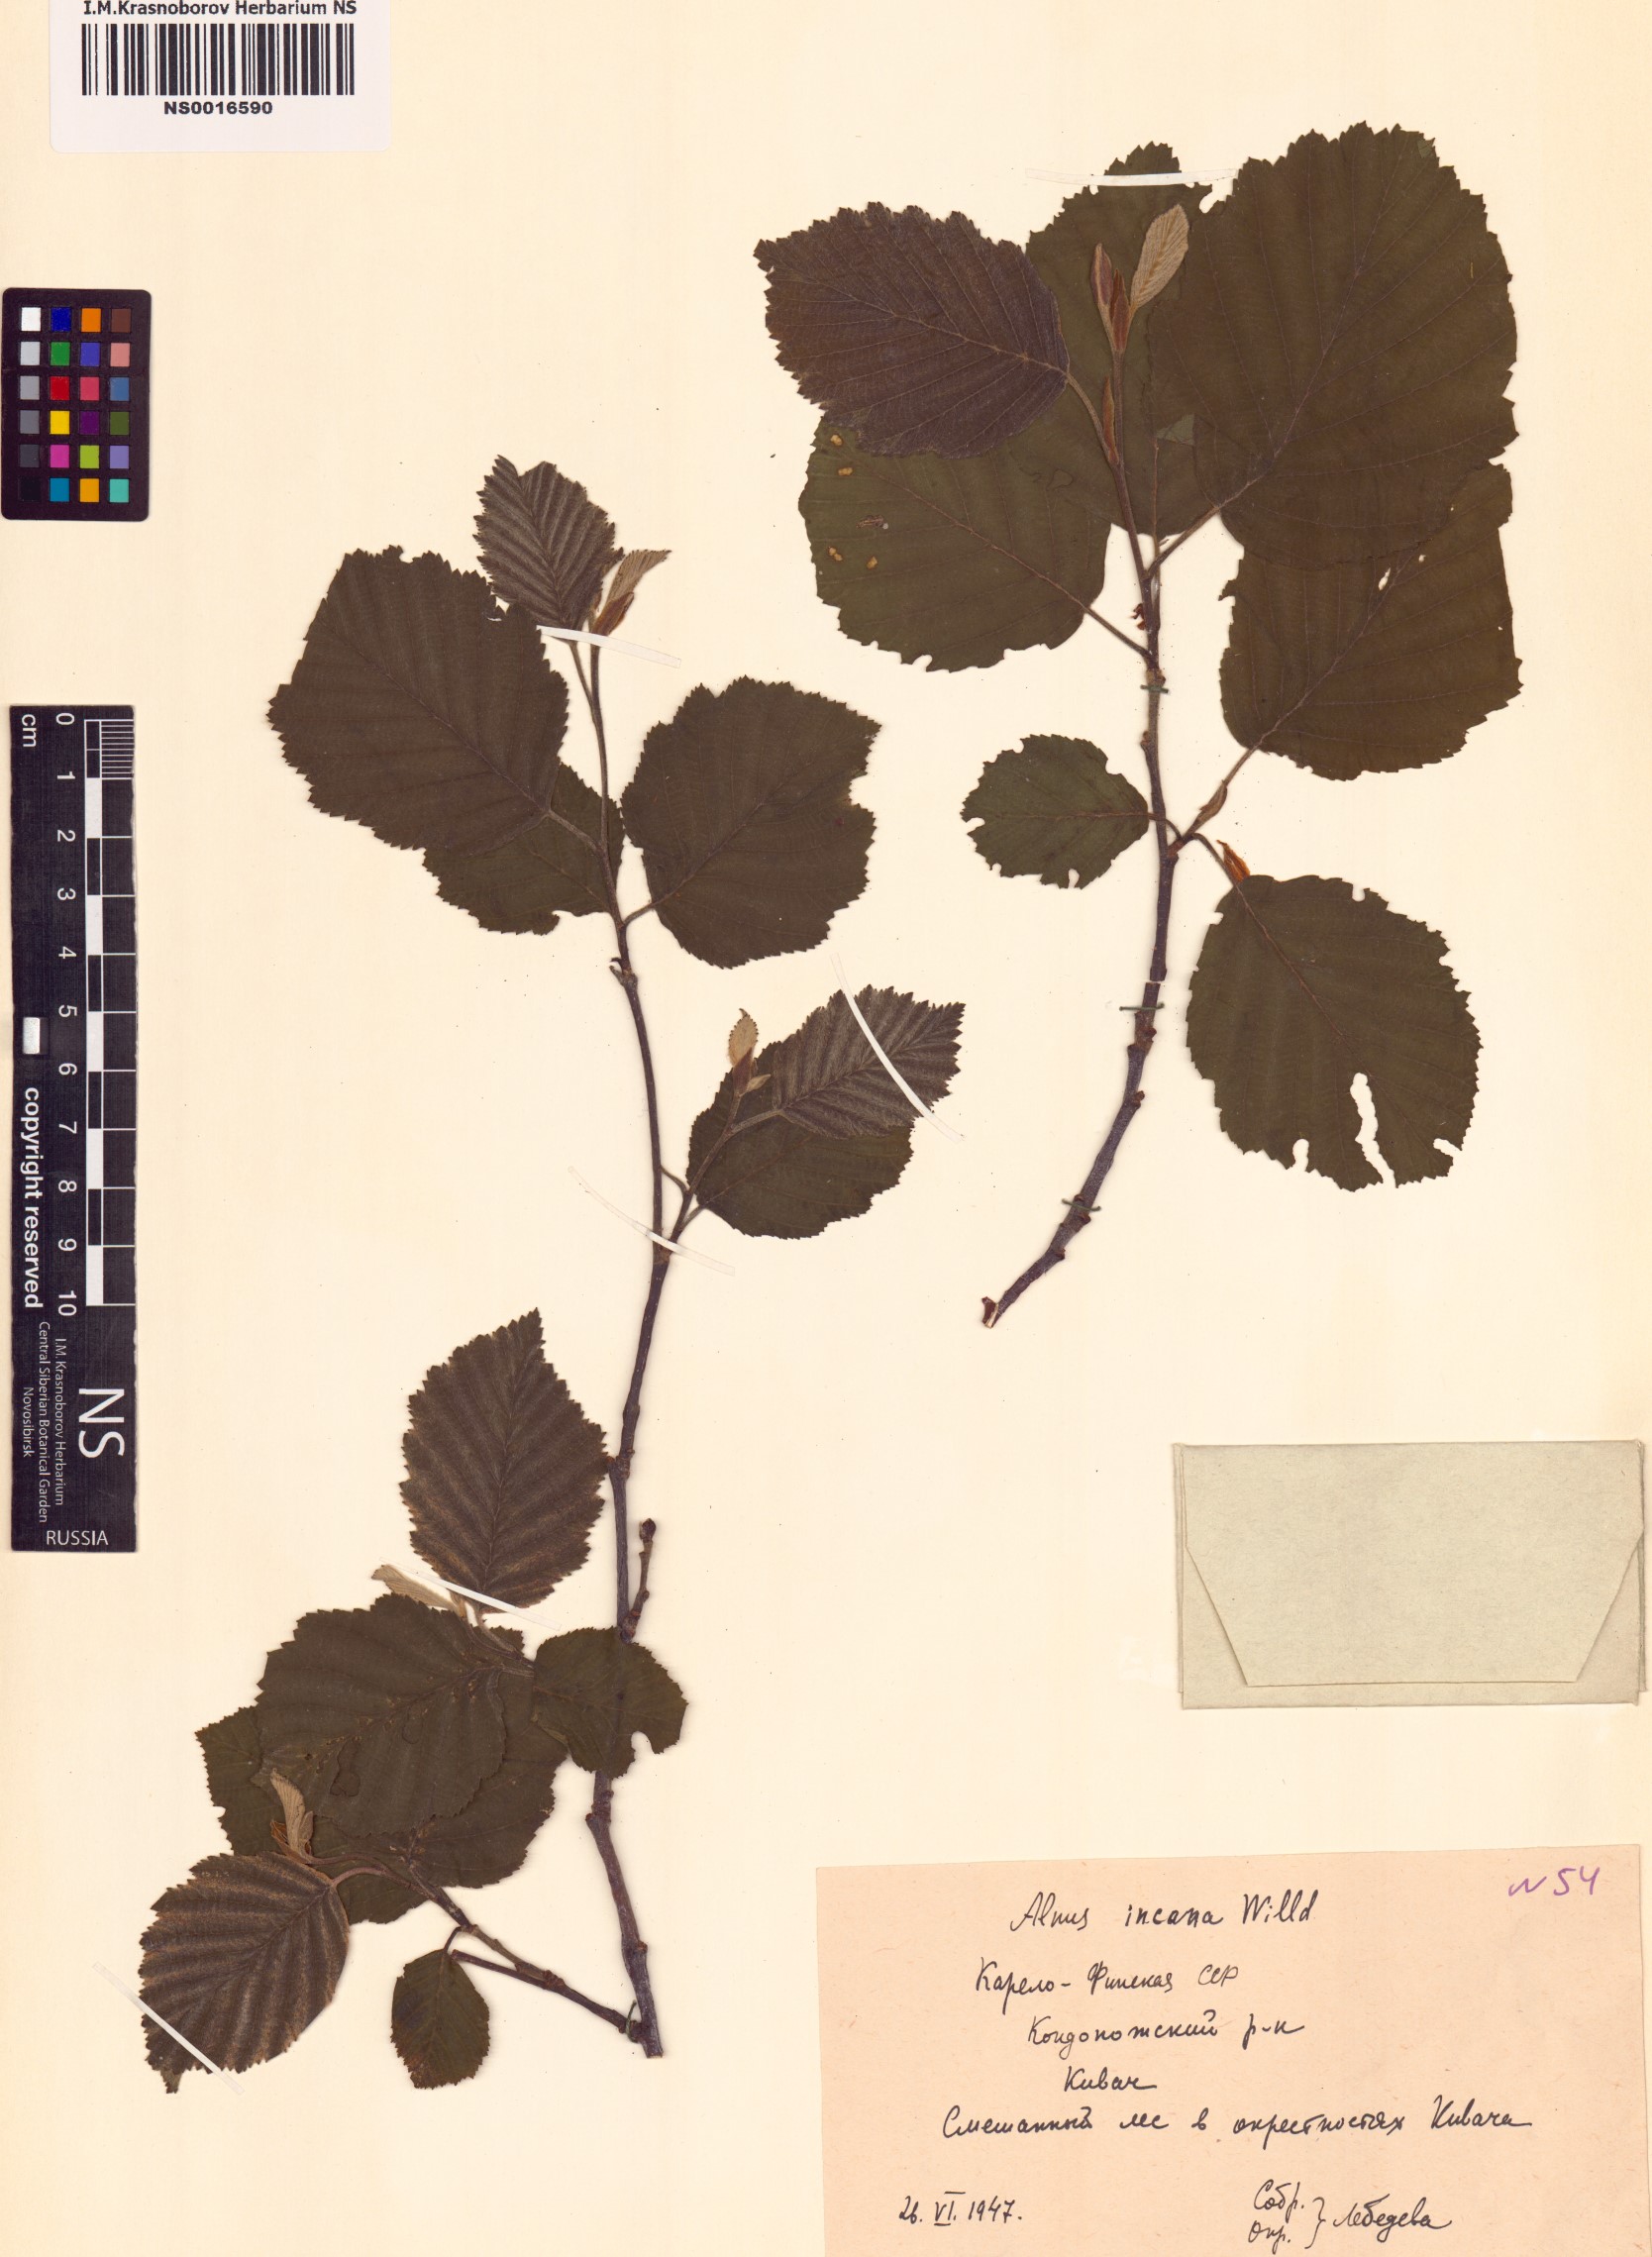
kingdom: Plantae
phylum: Tracheophyta
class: Magnoliopsida
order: Fagales
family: Betulaceae
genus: Alnus
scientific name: Alnus incana
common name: Grey alder
